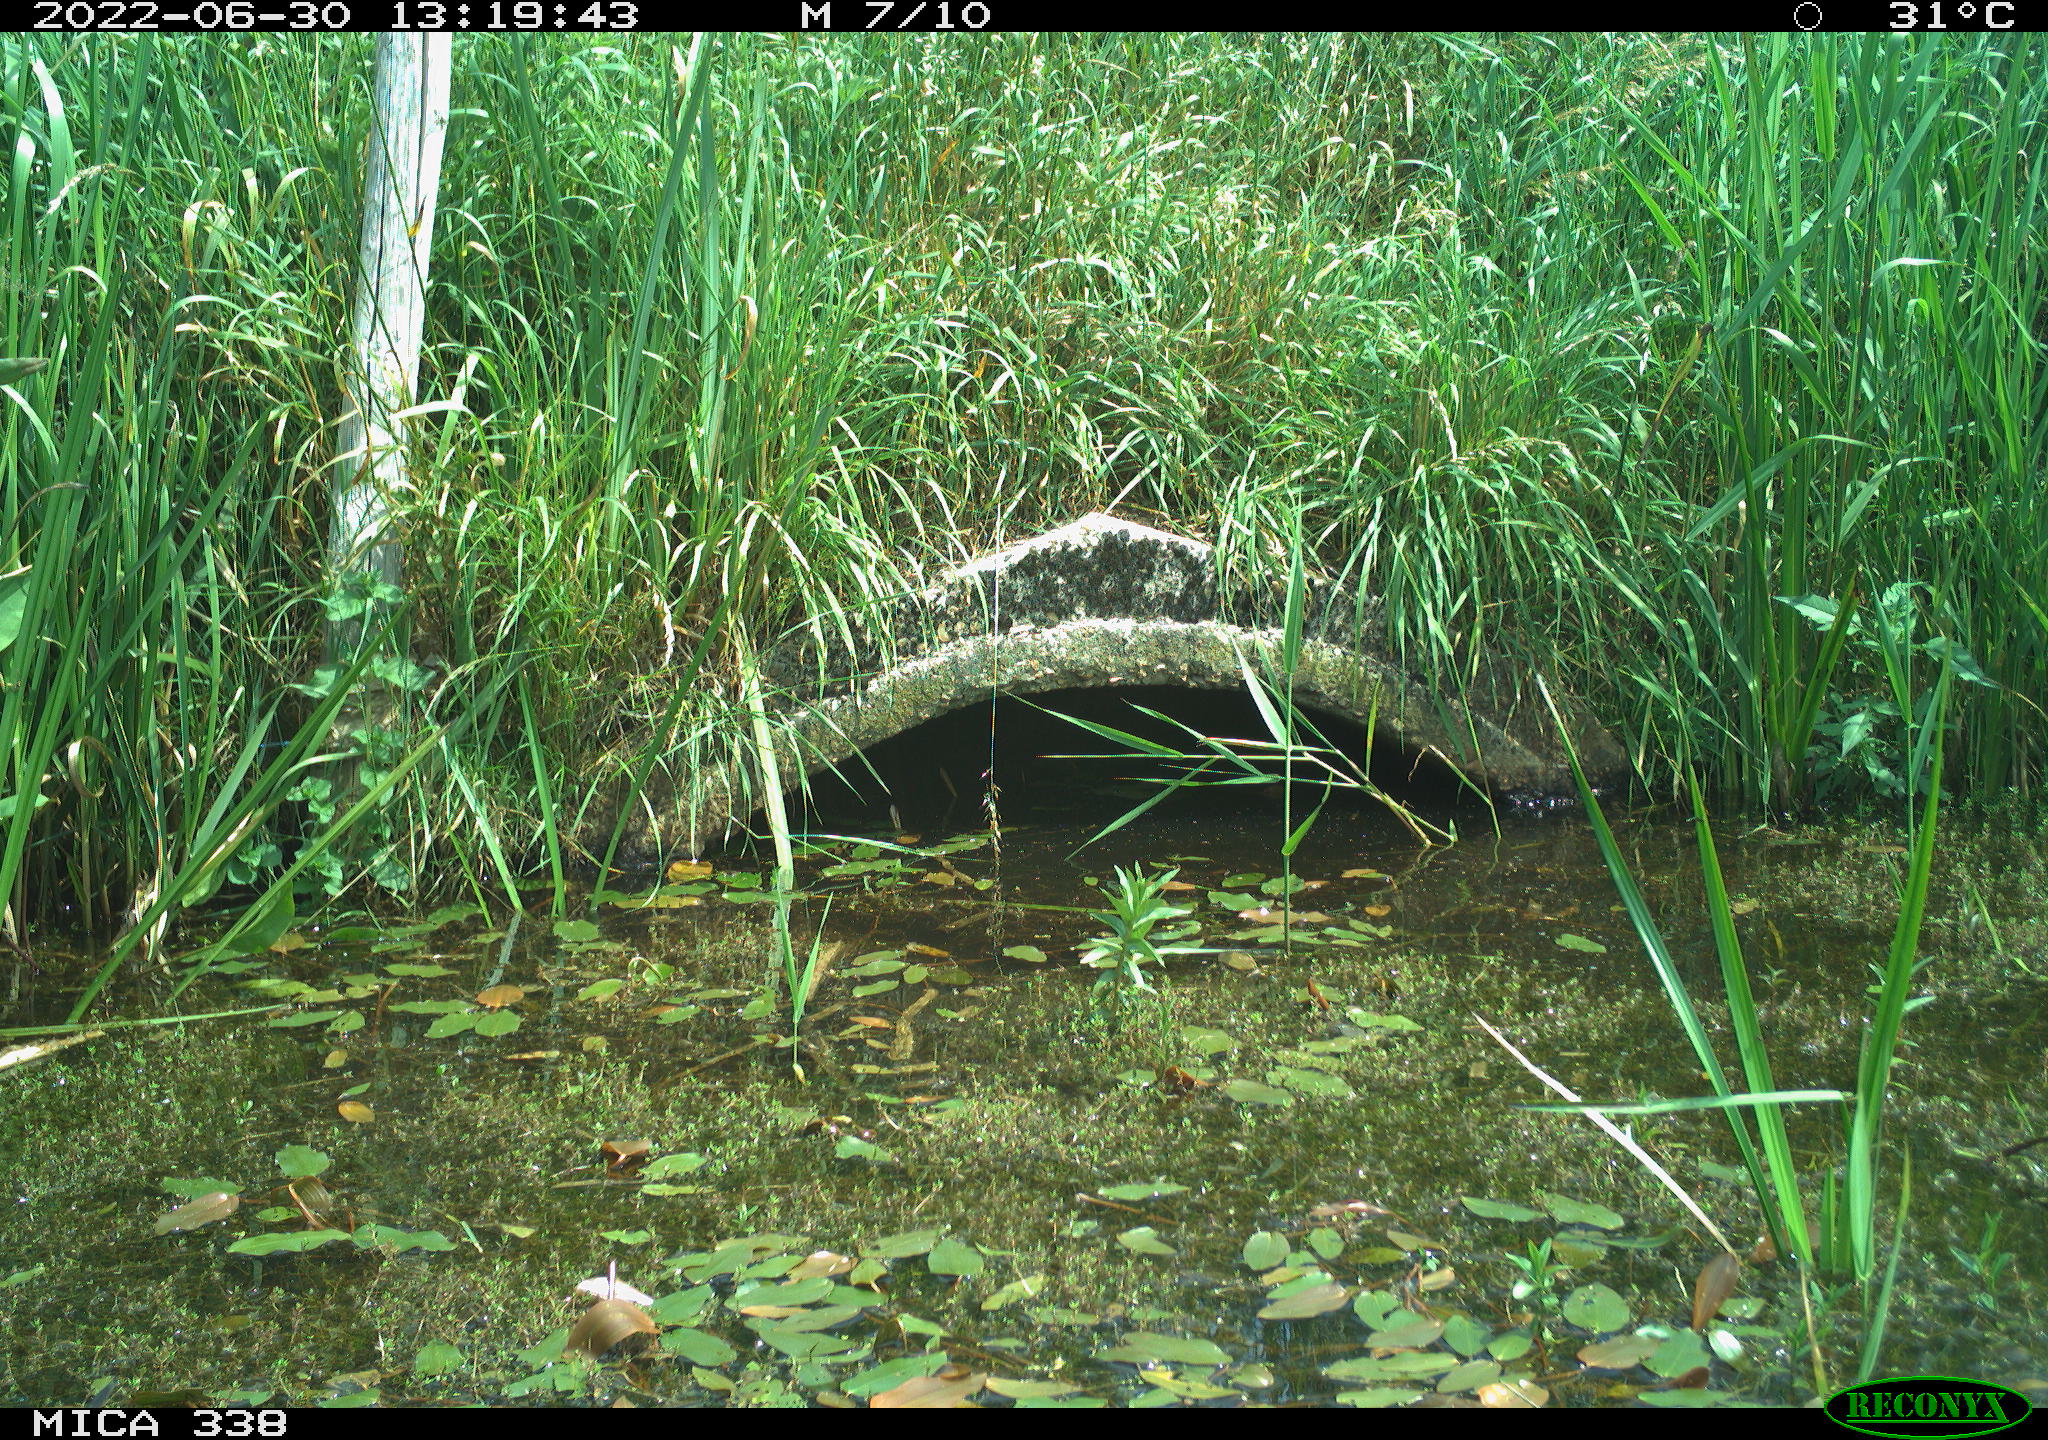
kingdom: Animalia
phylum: Chordata
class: Aves
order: Anseriformes
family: Anatidae
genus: Anas
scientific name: Anas platyrhynchos
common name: Mallard
